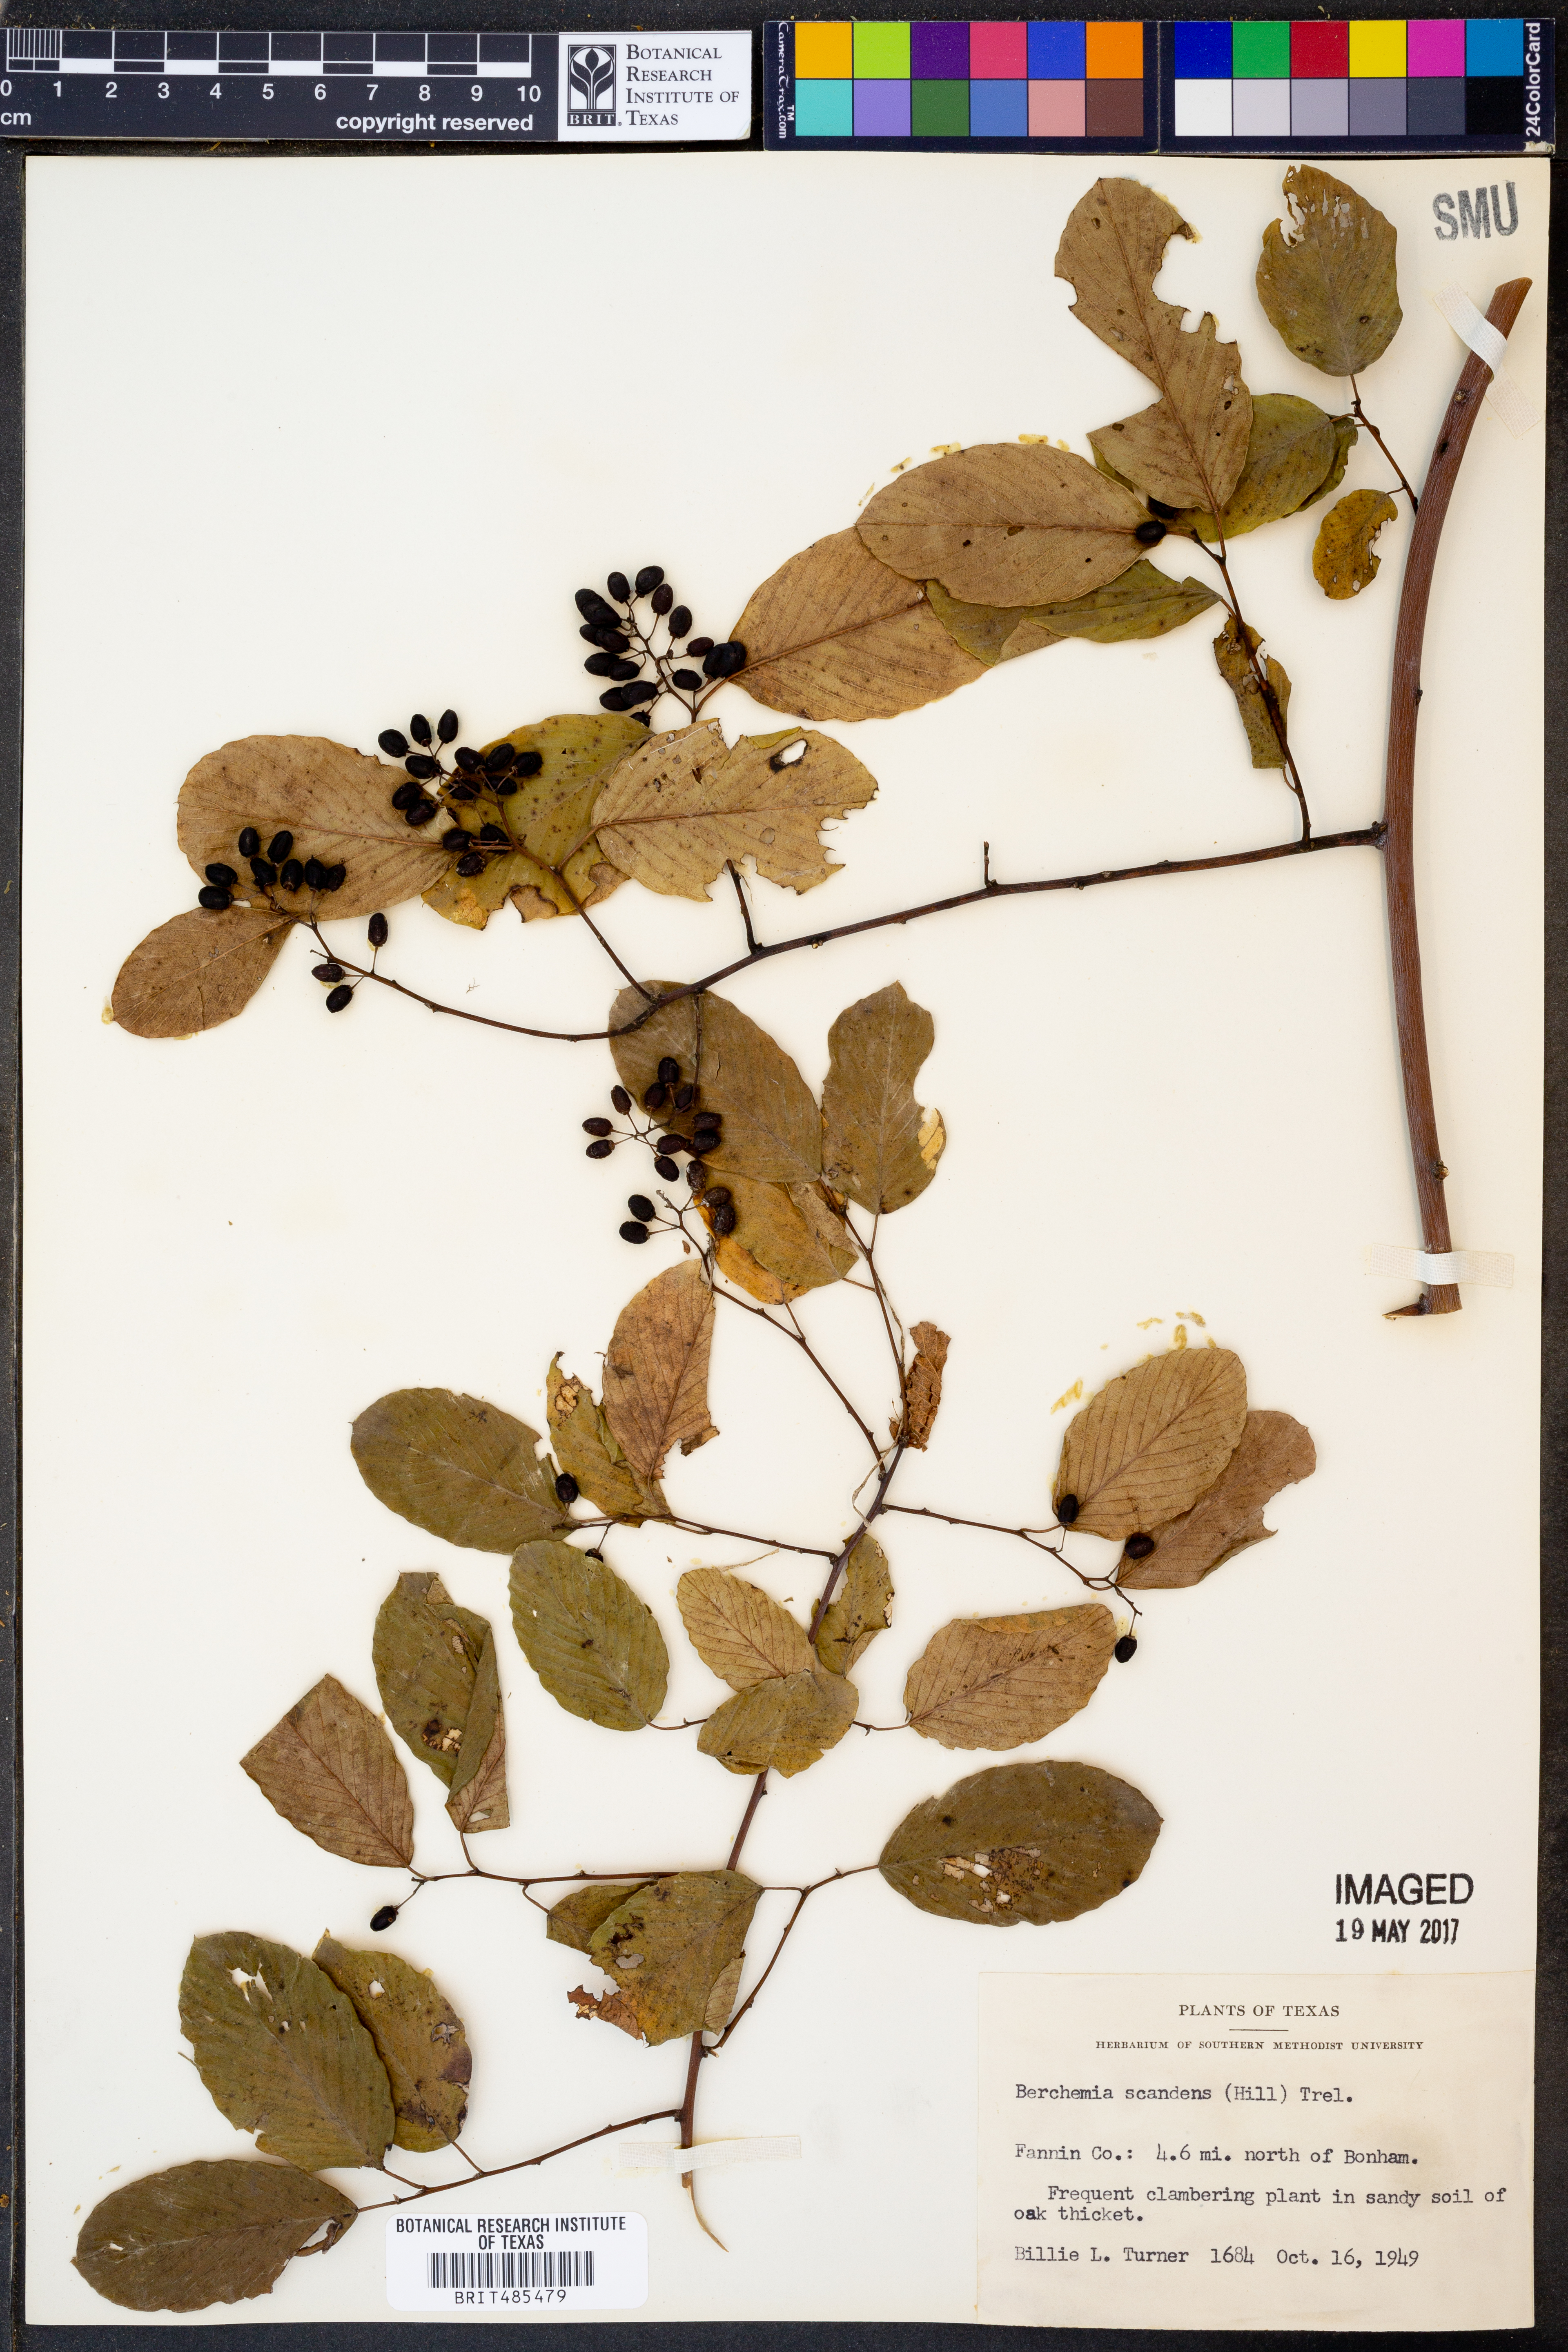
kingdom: Plantae
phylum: Tracheophyta
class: Magnoliopsida
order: Rosales
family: Rhamnaceae
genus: Berchemia
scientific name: Berchemia scandens
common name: Supplejack
